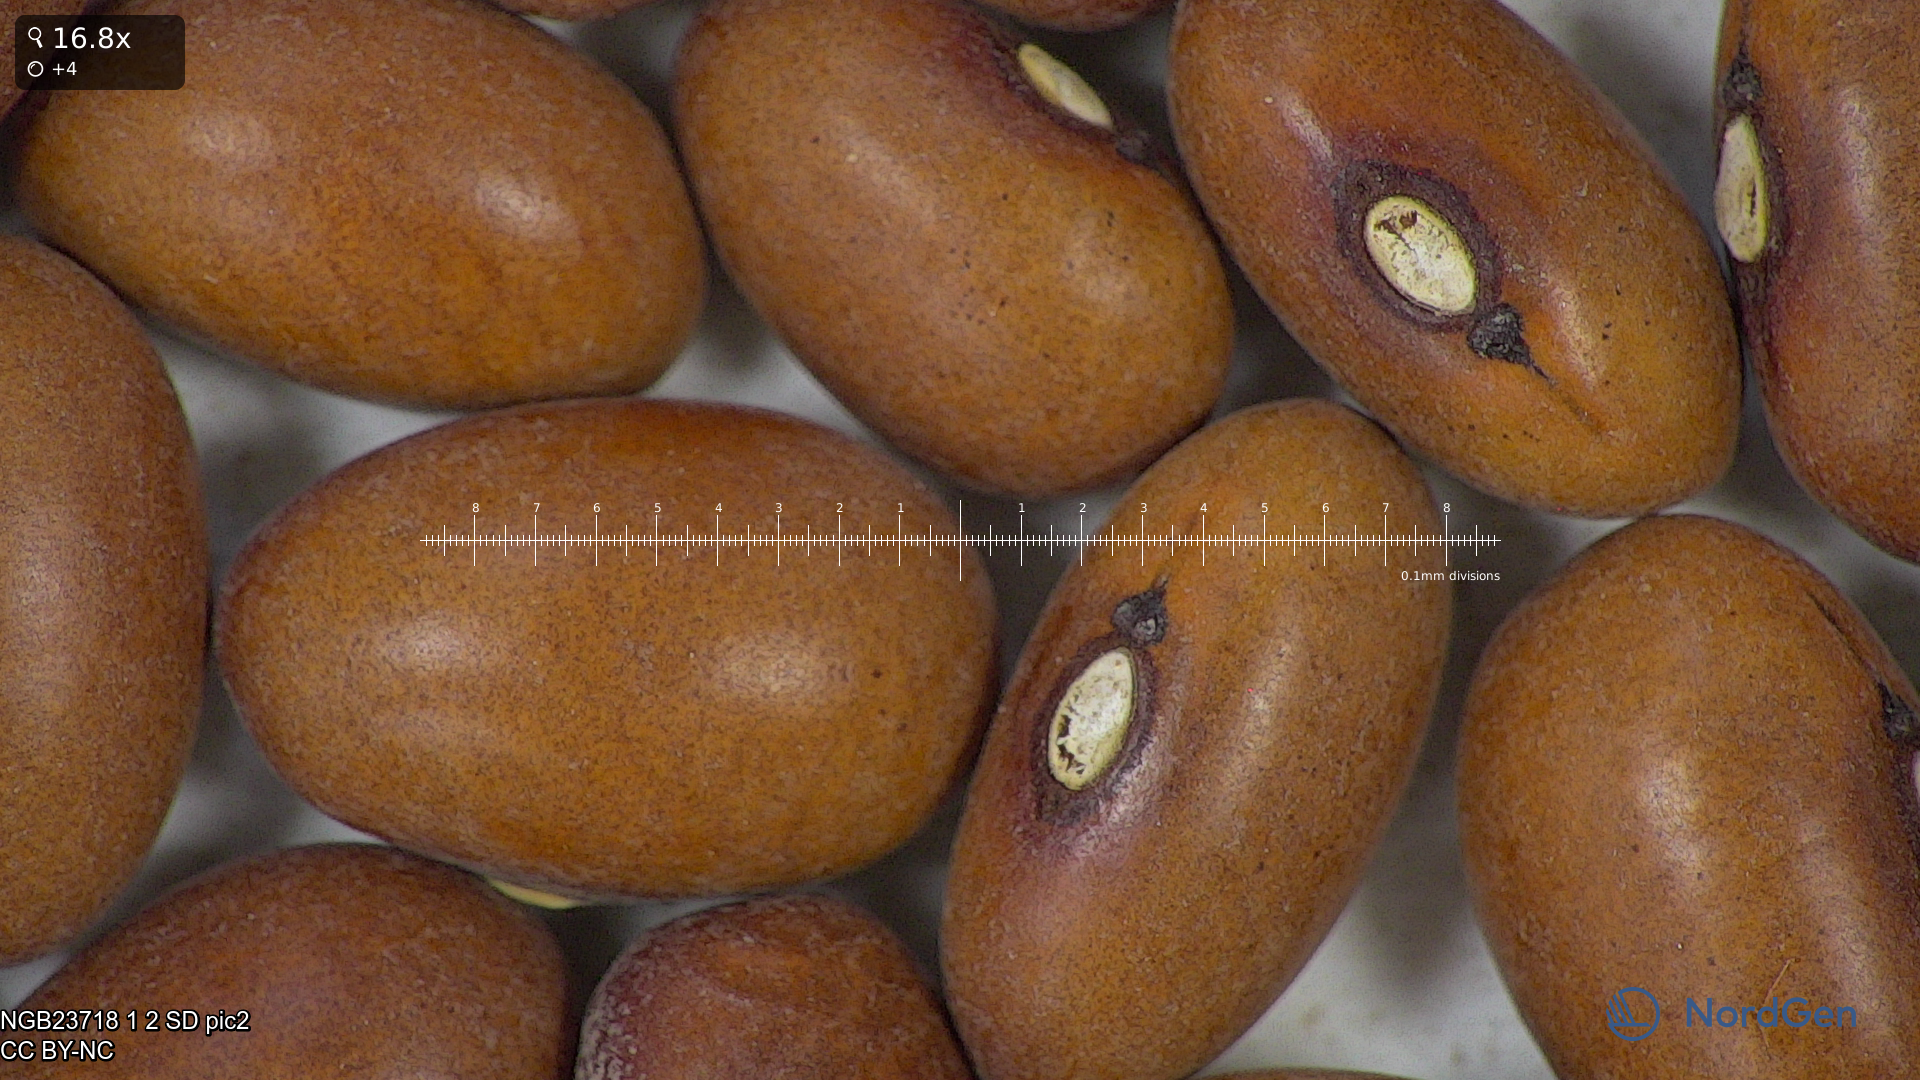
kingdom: Plantae
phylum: Tracheophyta
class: Magnoliopsida
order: Fabales
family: Fabaceae
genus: Phaseolus
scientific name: Phaseolus vulgaris
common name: Bean
